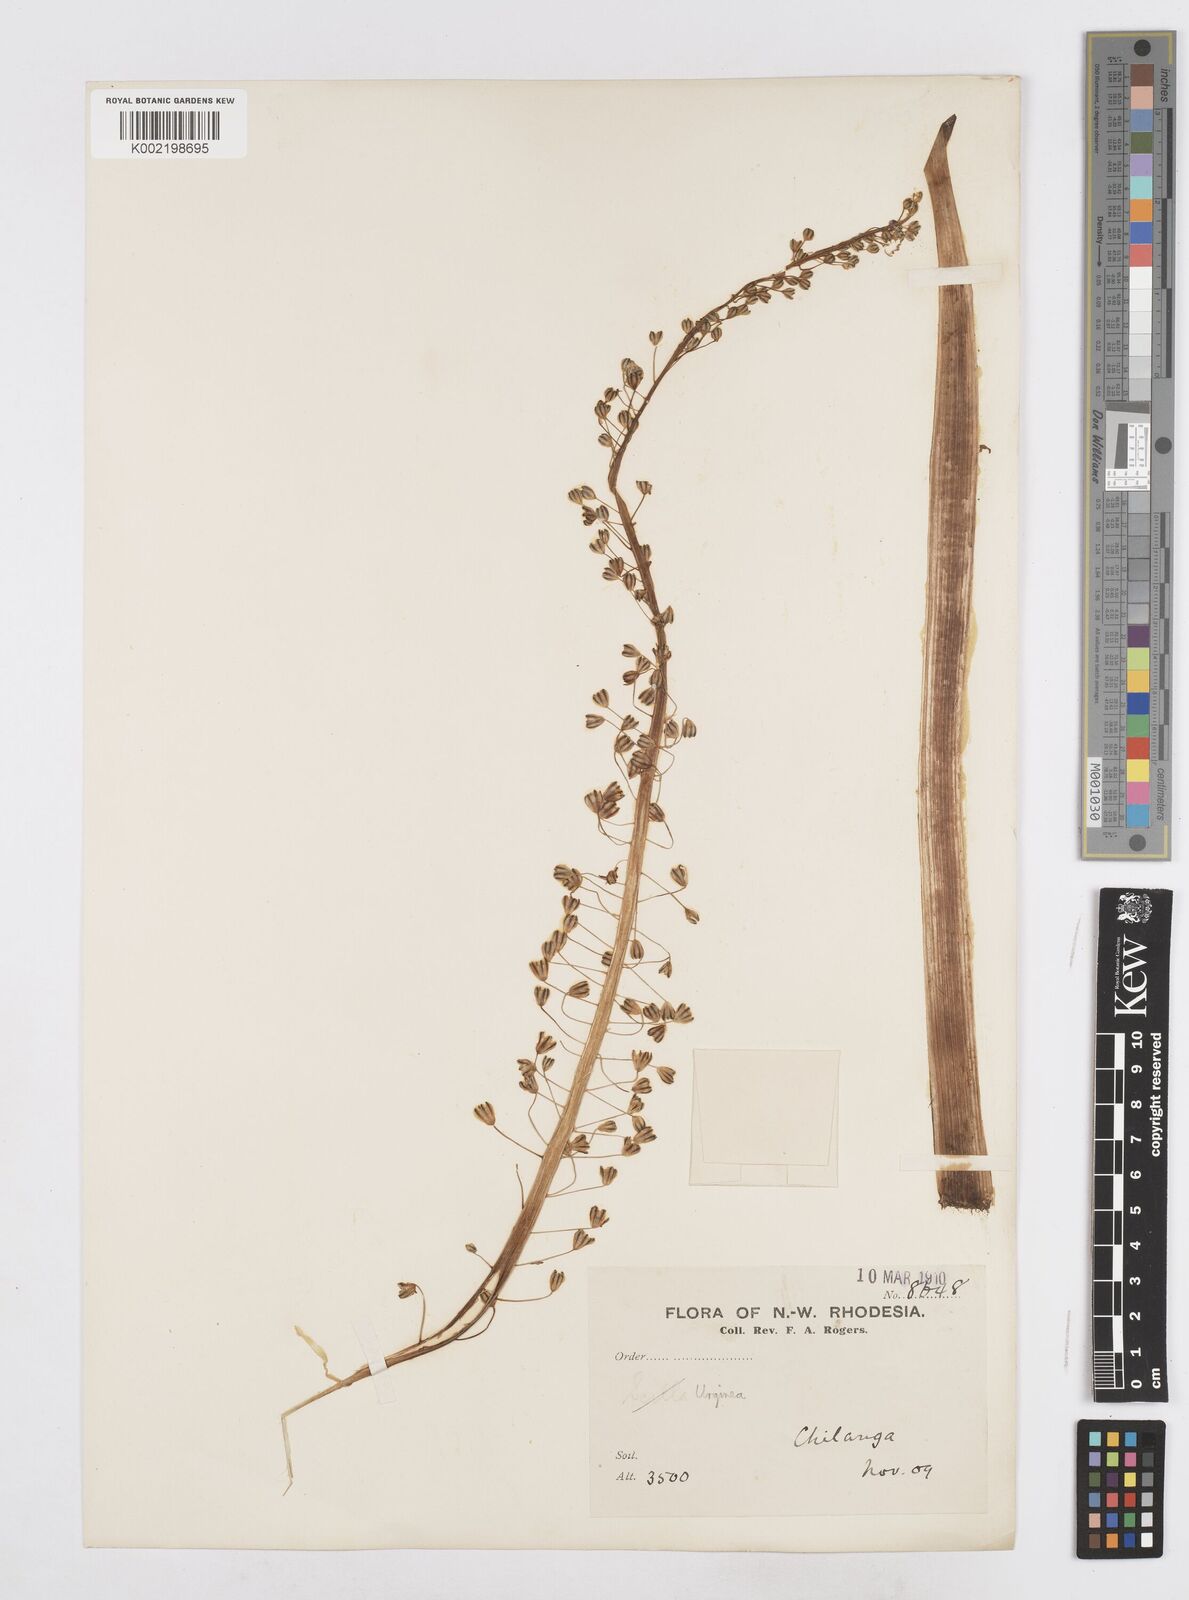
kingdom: Plantae
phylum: Tracheophyta
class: Liliopsida
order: Asparagales
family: Asparagaceae
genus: Drimia
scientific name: Drimia
